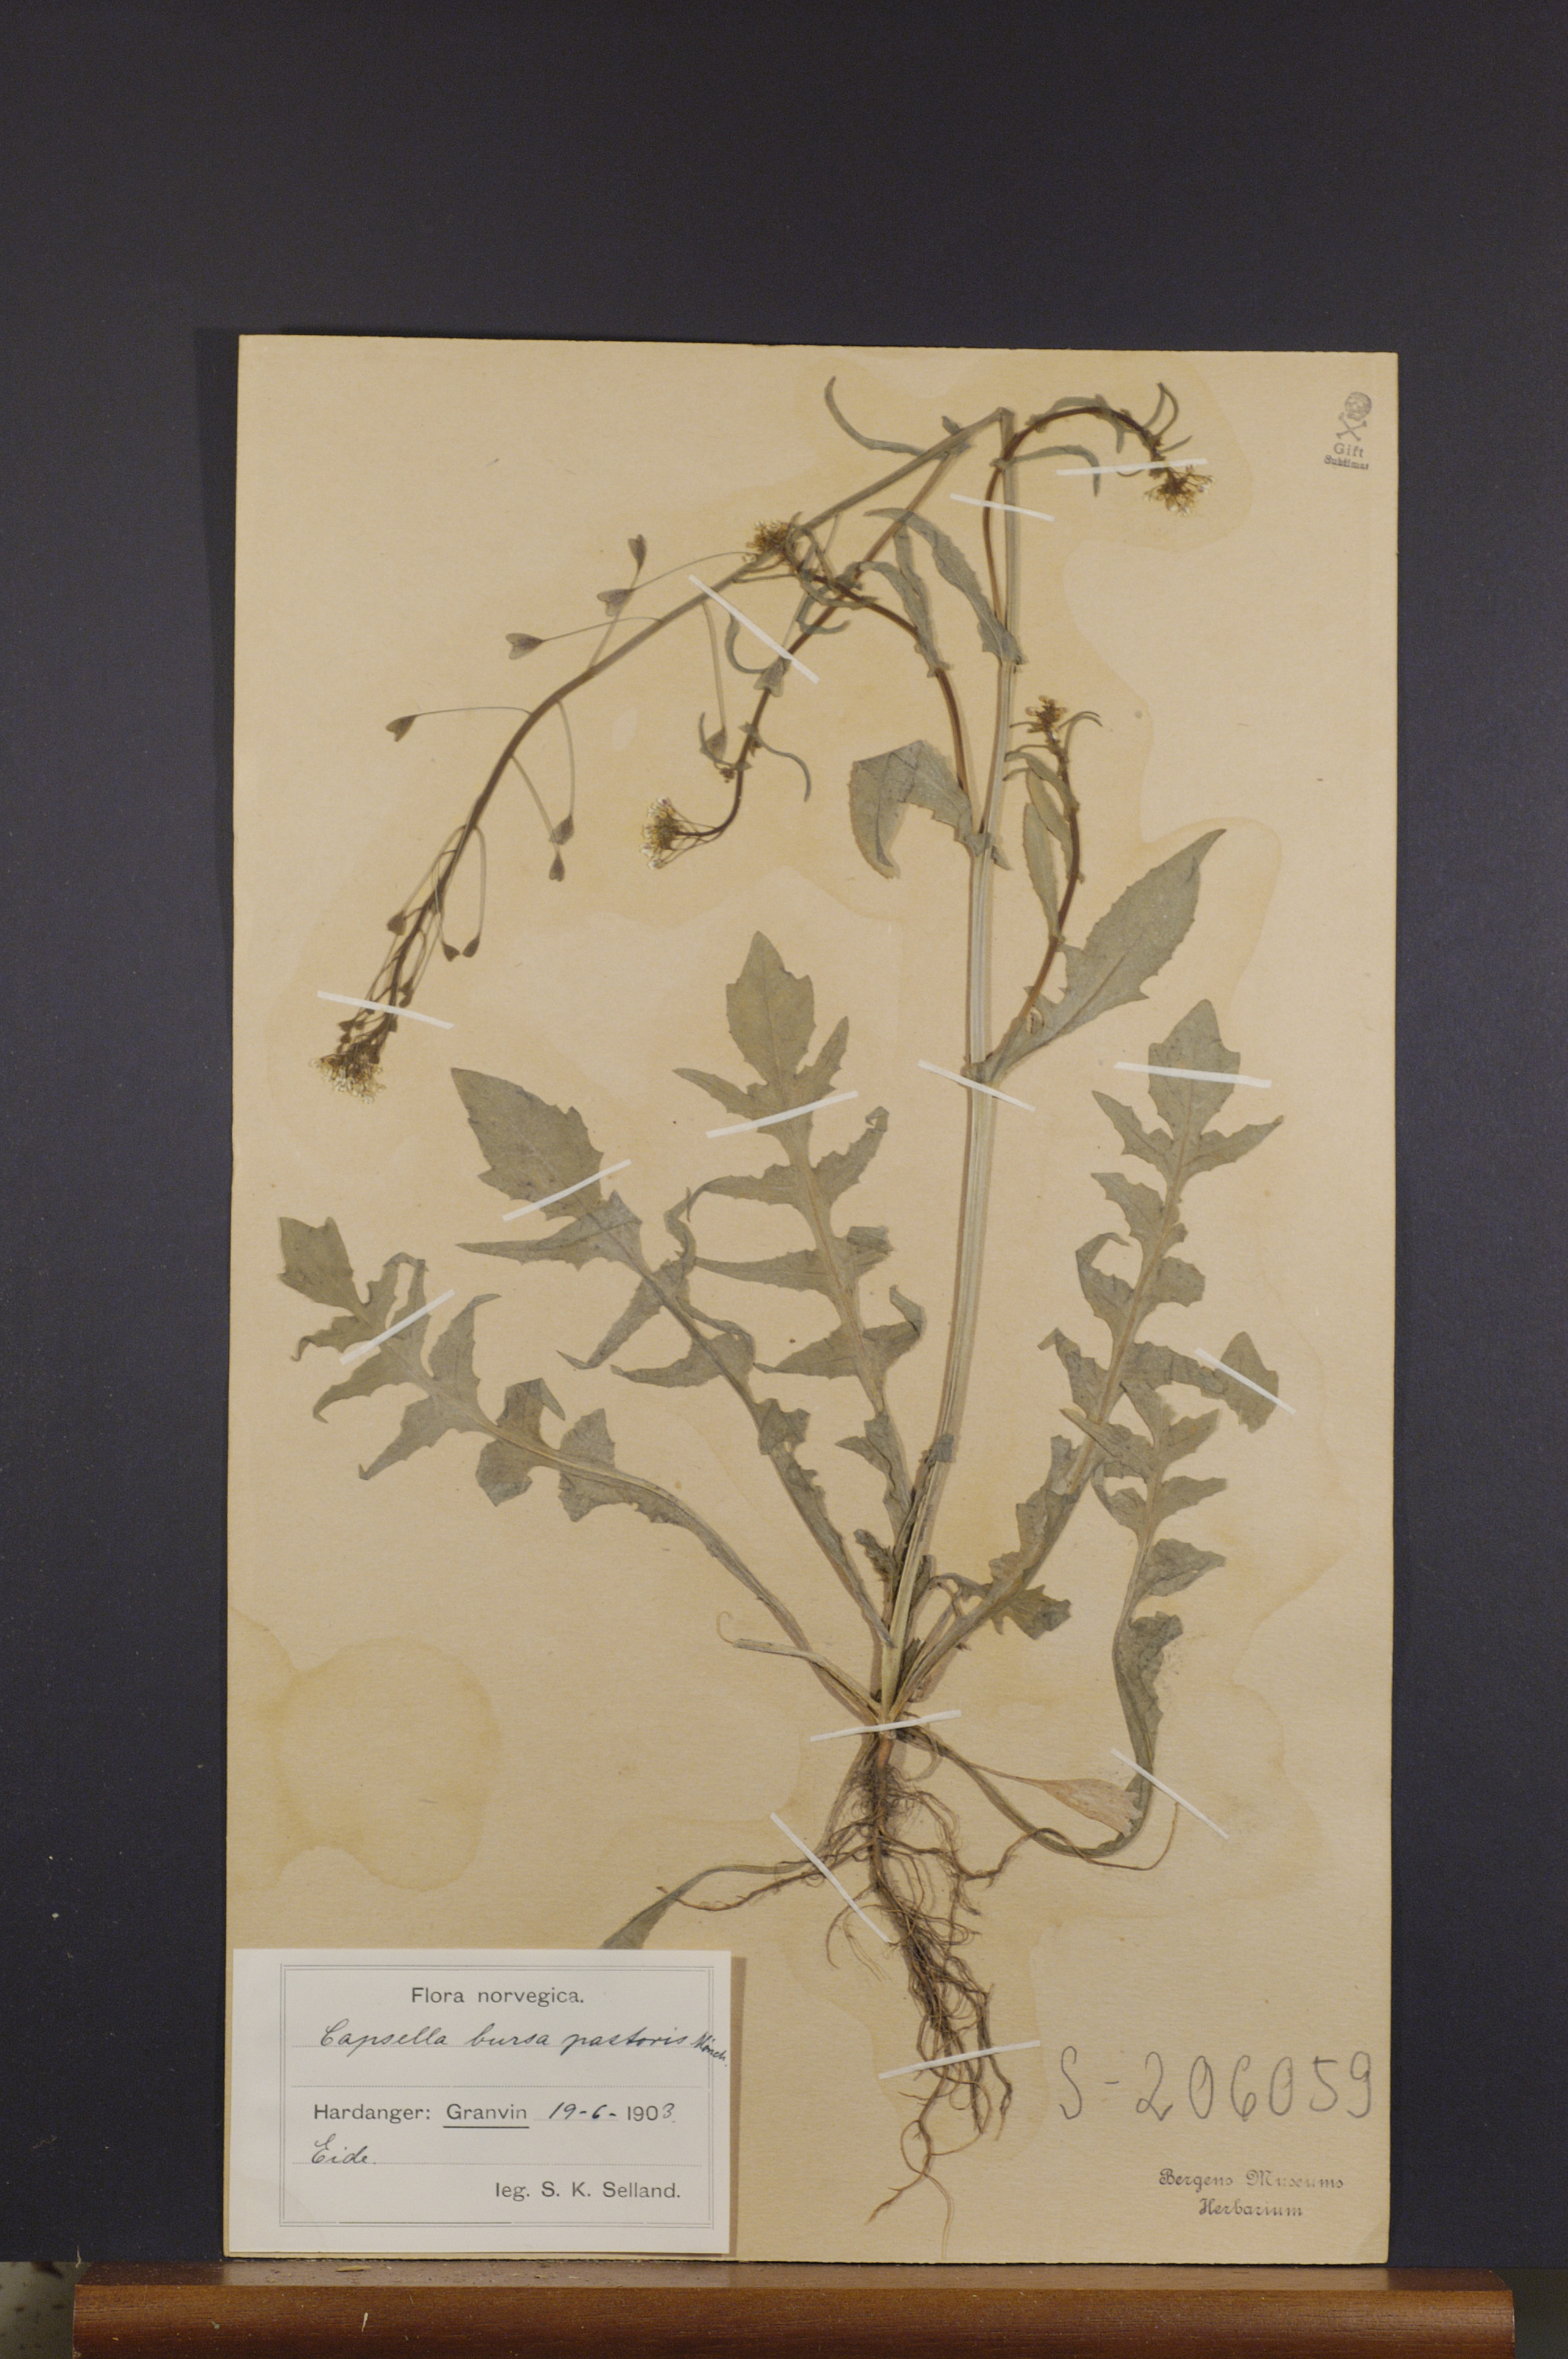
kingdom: Plantae
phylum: Tracheophyta
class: Magnoliopsida
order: Brassicales
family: Brassicaceae
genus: Capsella
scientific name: Capsella bursa-pastoris
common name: Shepherd's purse
